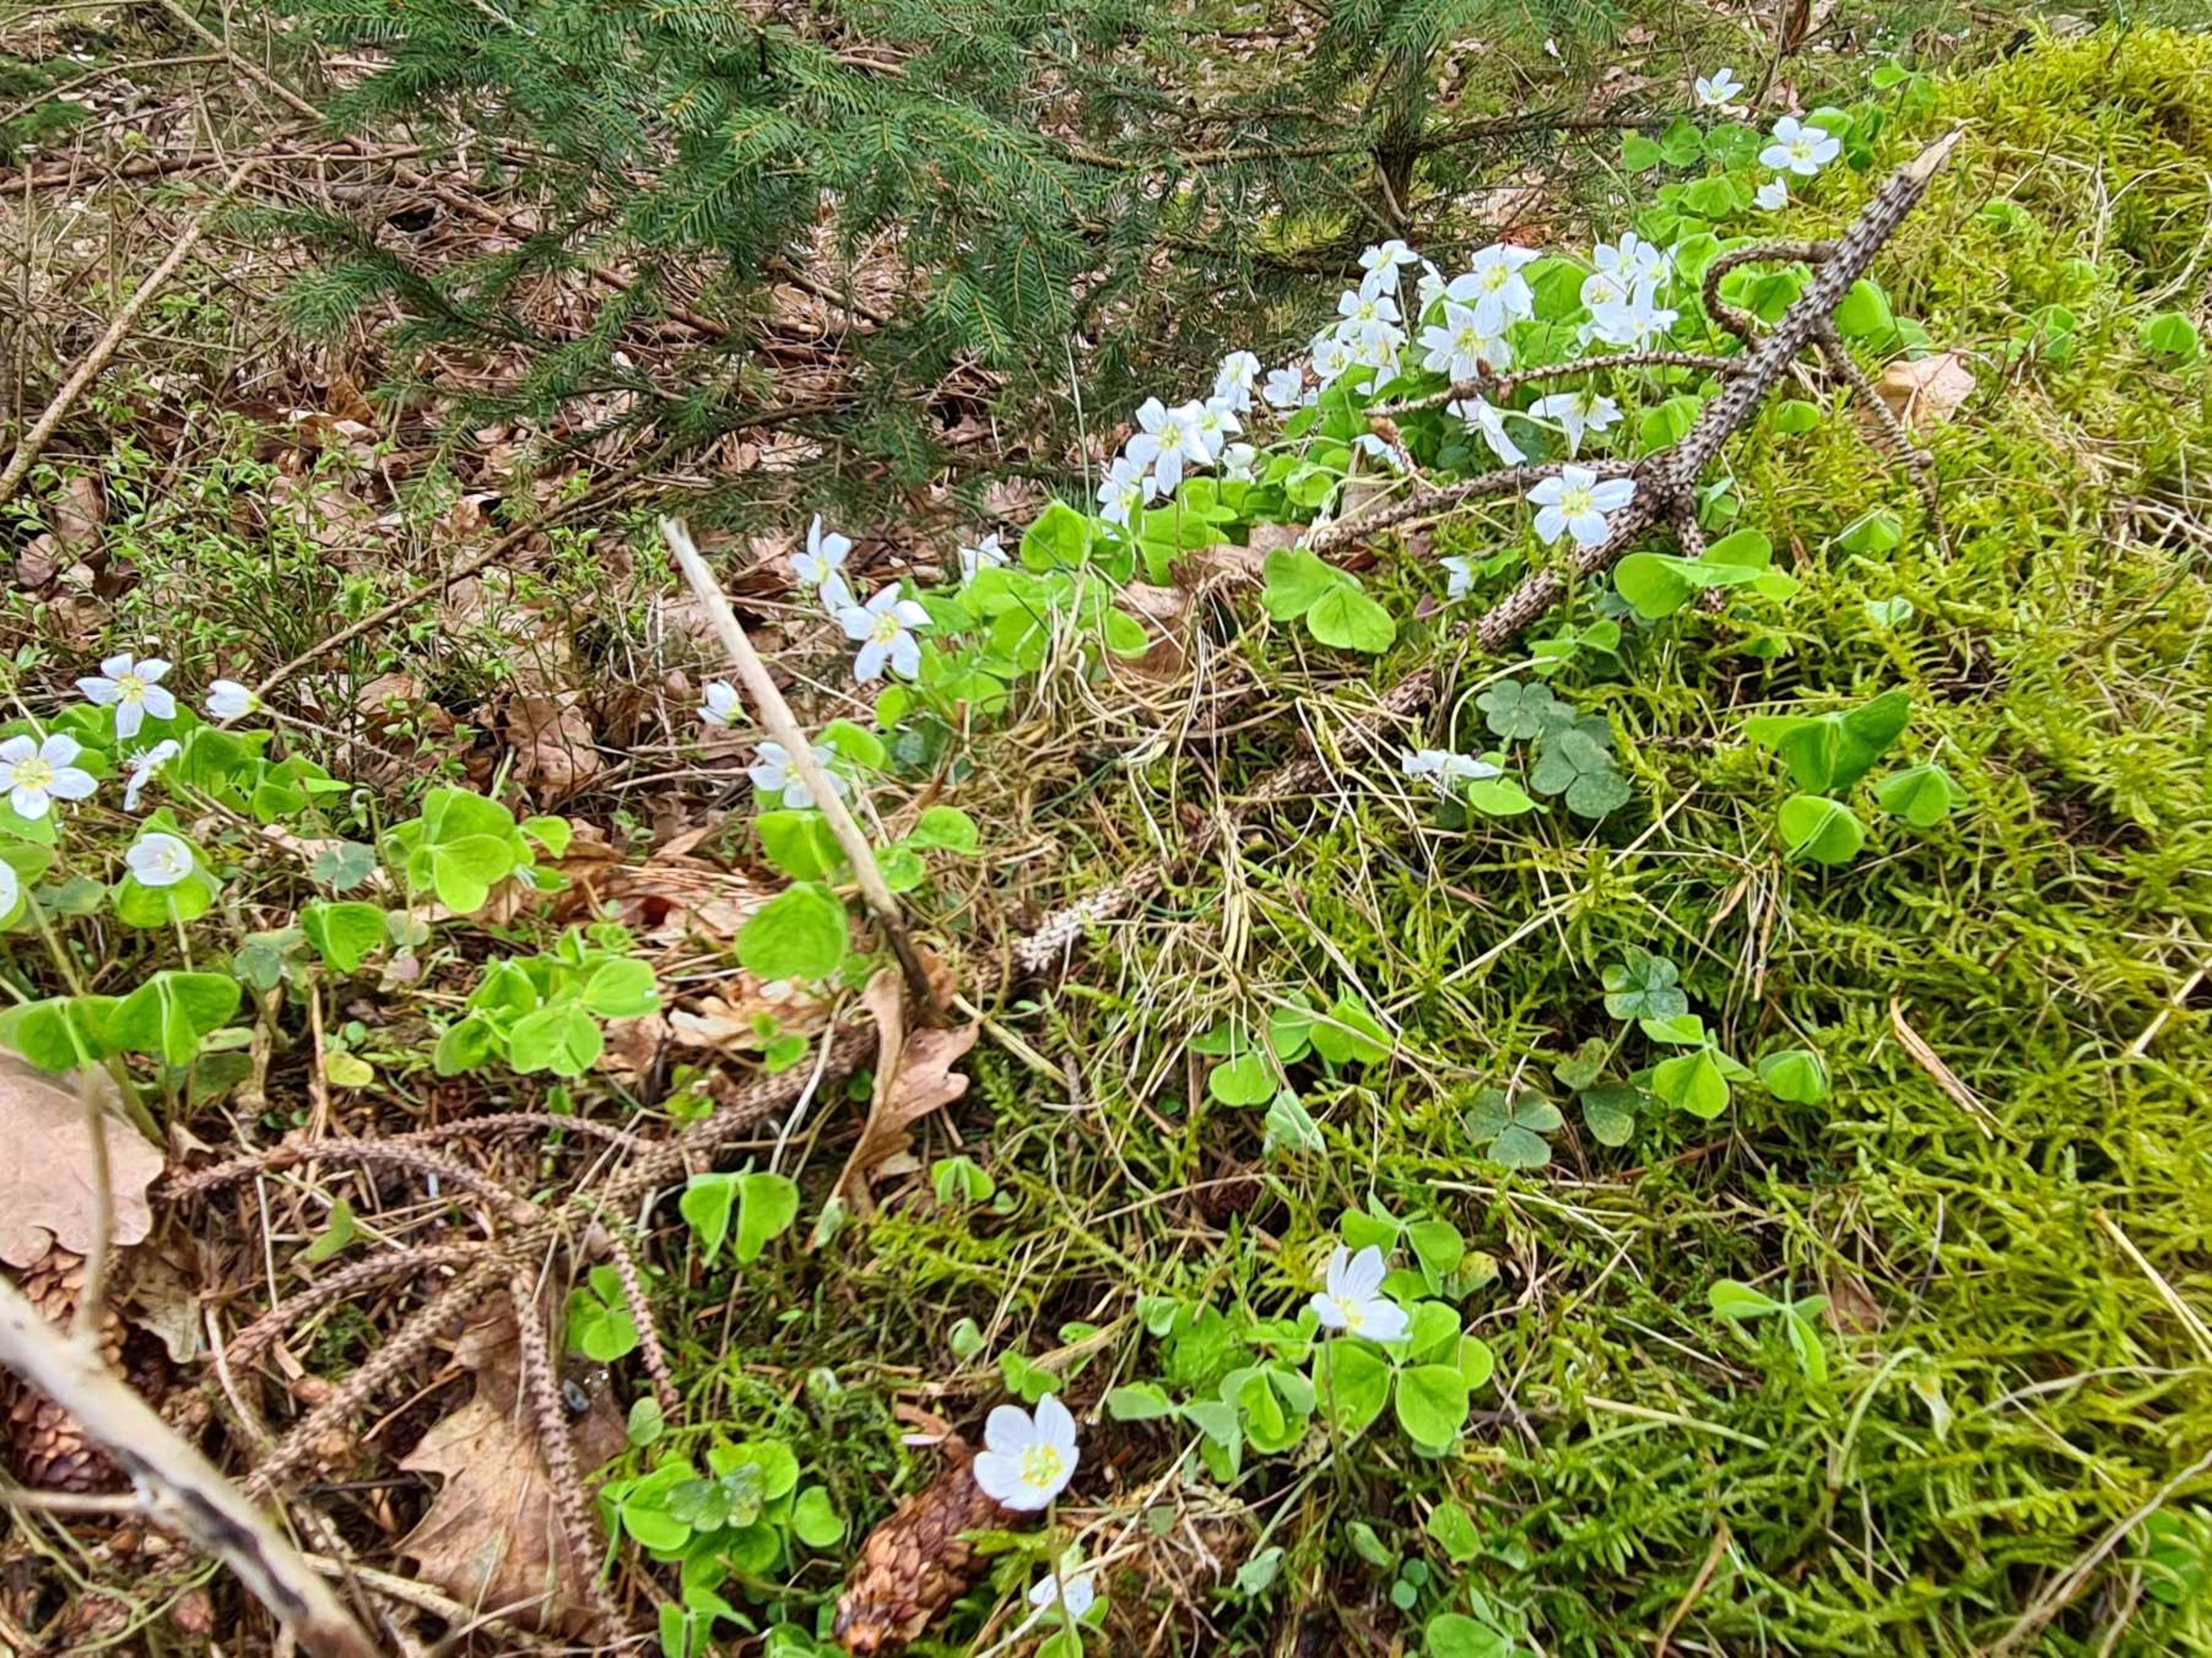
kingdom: Plantae
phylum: Tracheophyta
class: Magnoliopsida
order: Oxalidales
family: Oxalidaceae
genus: Oxalis
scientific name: Oxalis acetosella
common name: Skovsyre
